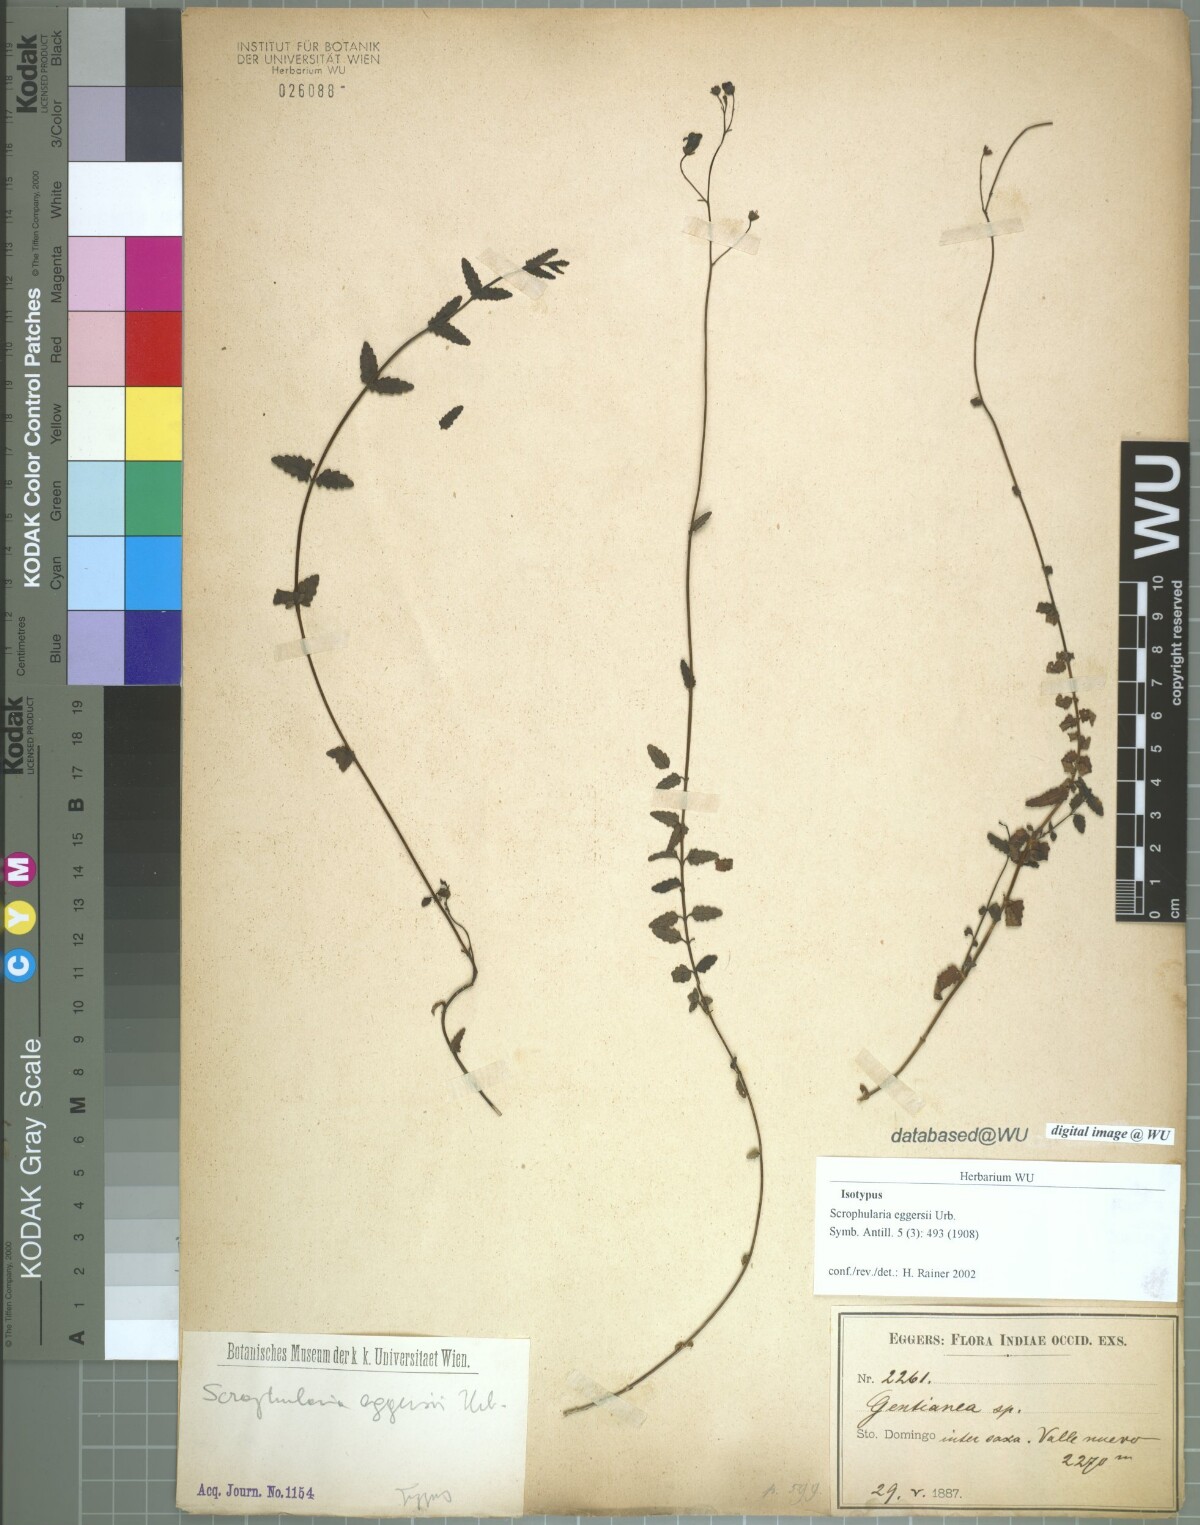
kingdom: Plantae
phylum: Tracheophyta
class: Magnoliopsida
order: Lamiales
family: Scrophulariaceae
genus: Scrophularia
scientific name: Scrophularia eggersii
